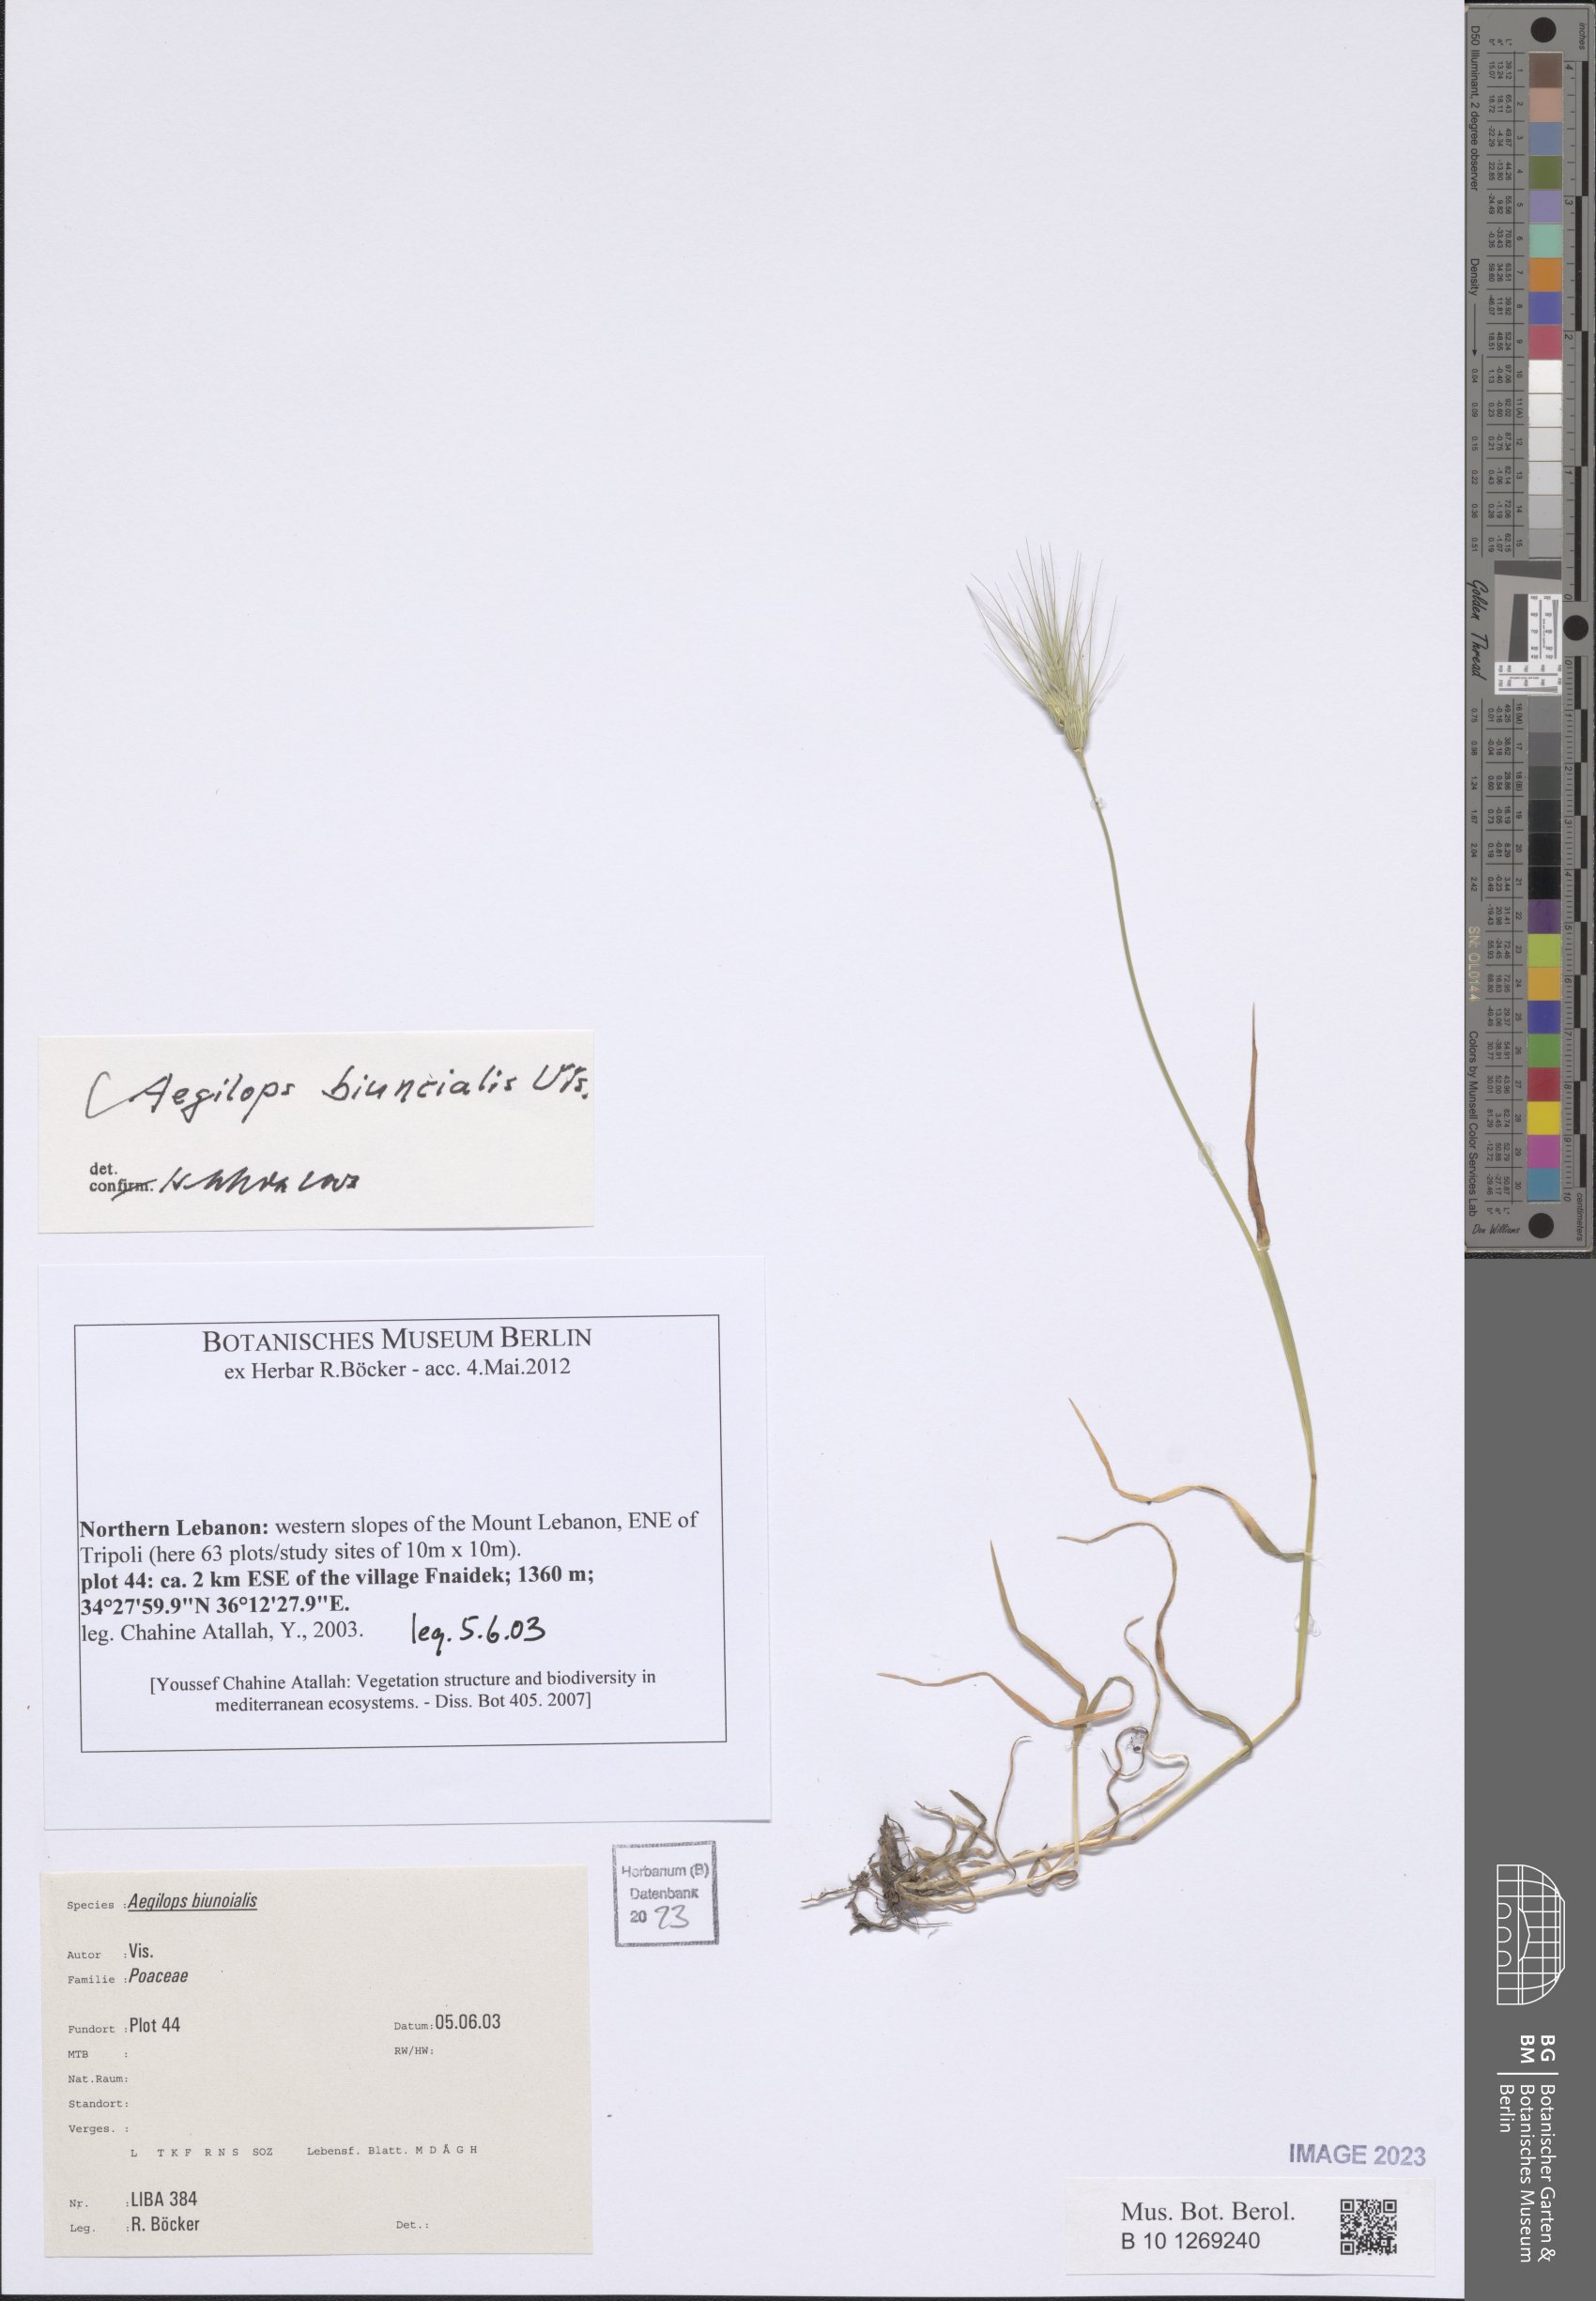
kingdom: Plantae
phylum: Tracheophyta
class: Liliopsida
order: Poales
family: Poaceae
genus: Aegilops
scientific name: Aegilops biuncialis
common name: Mediterranean aegilops
